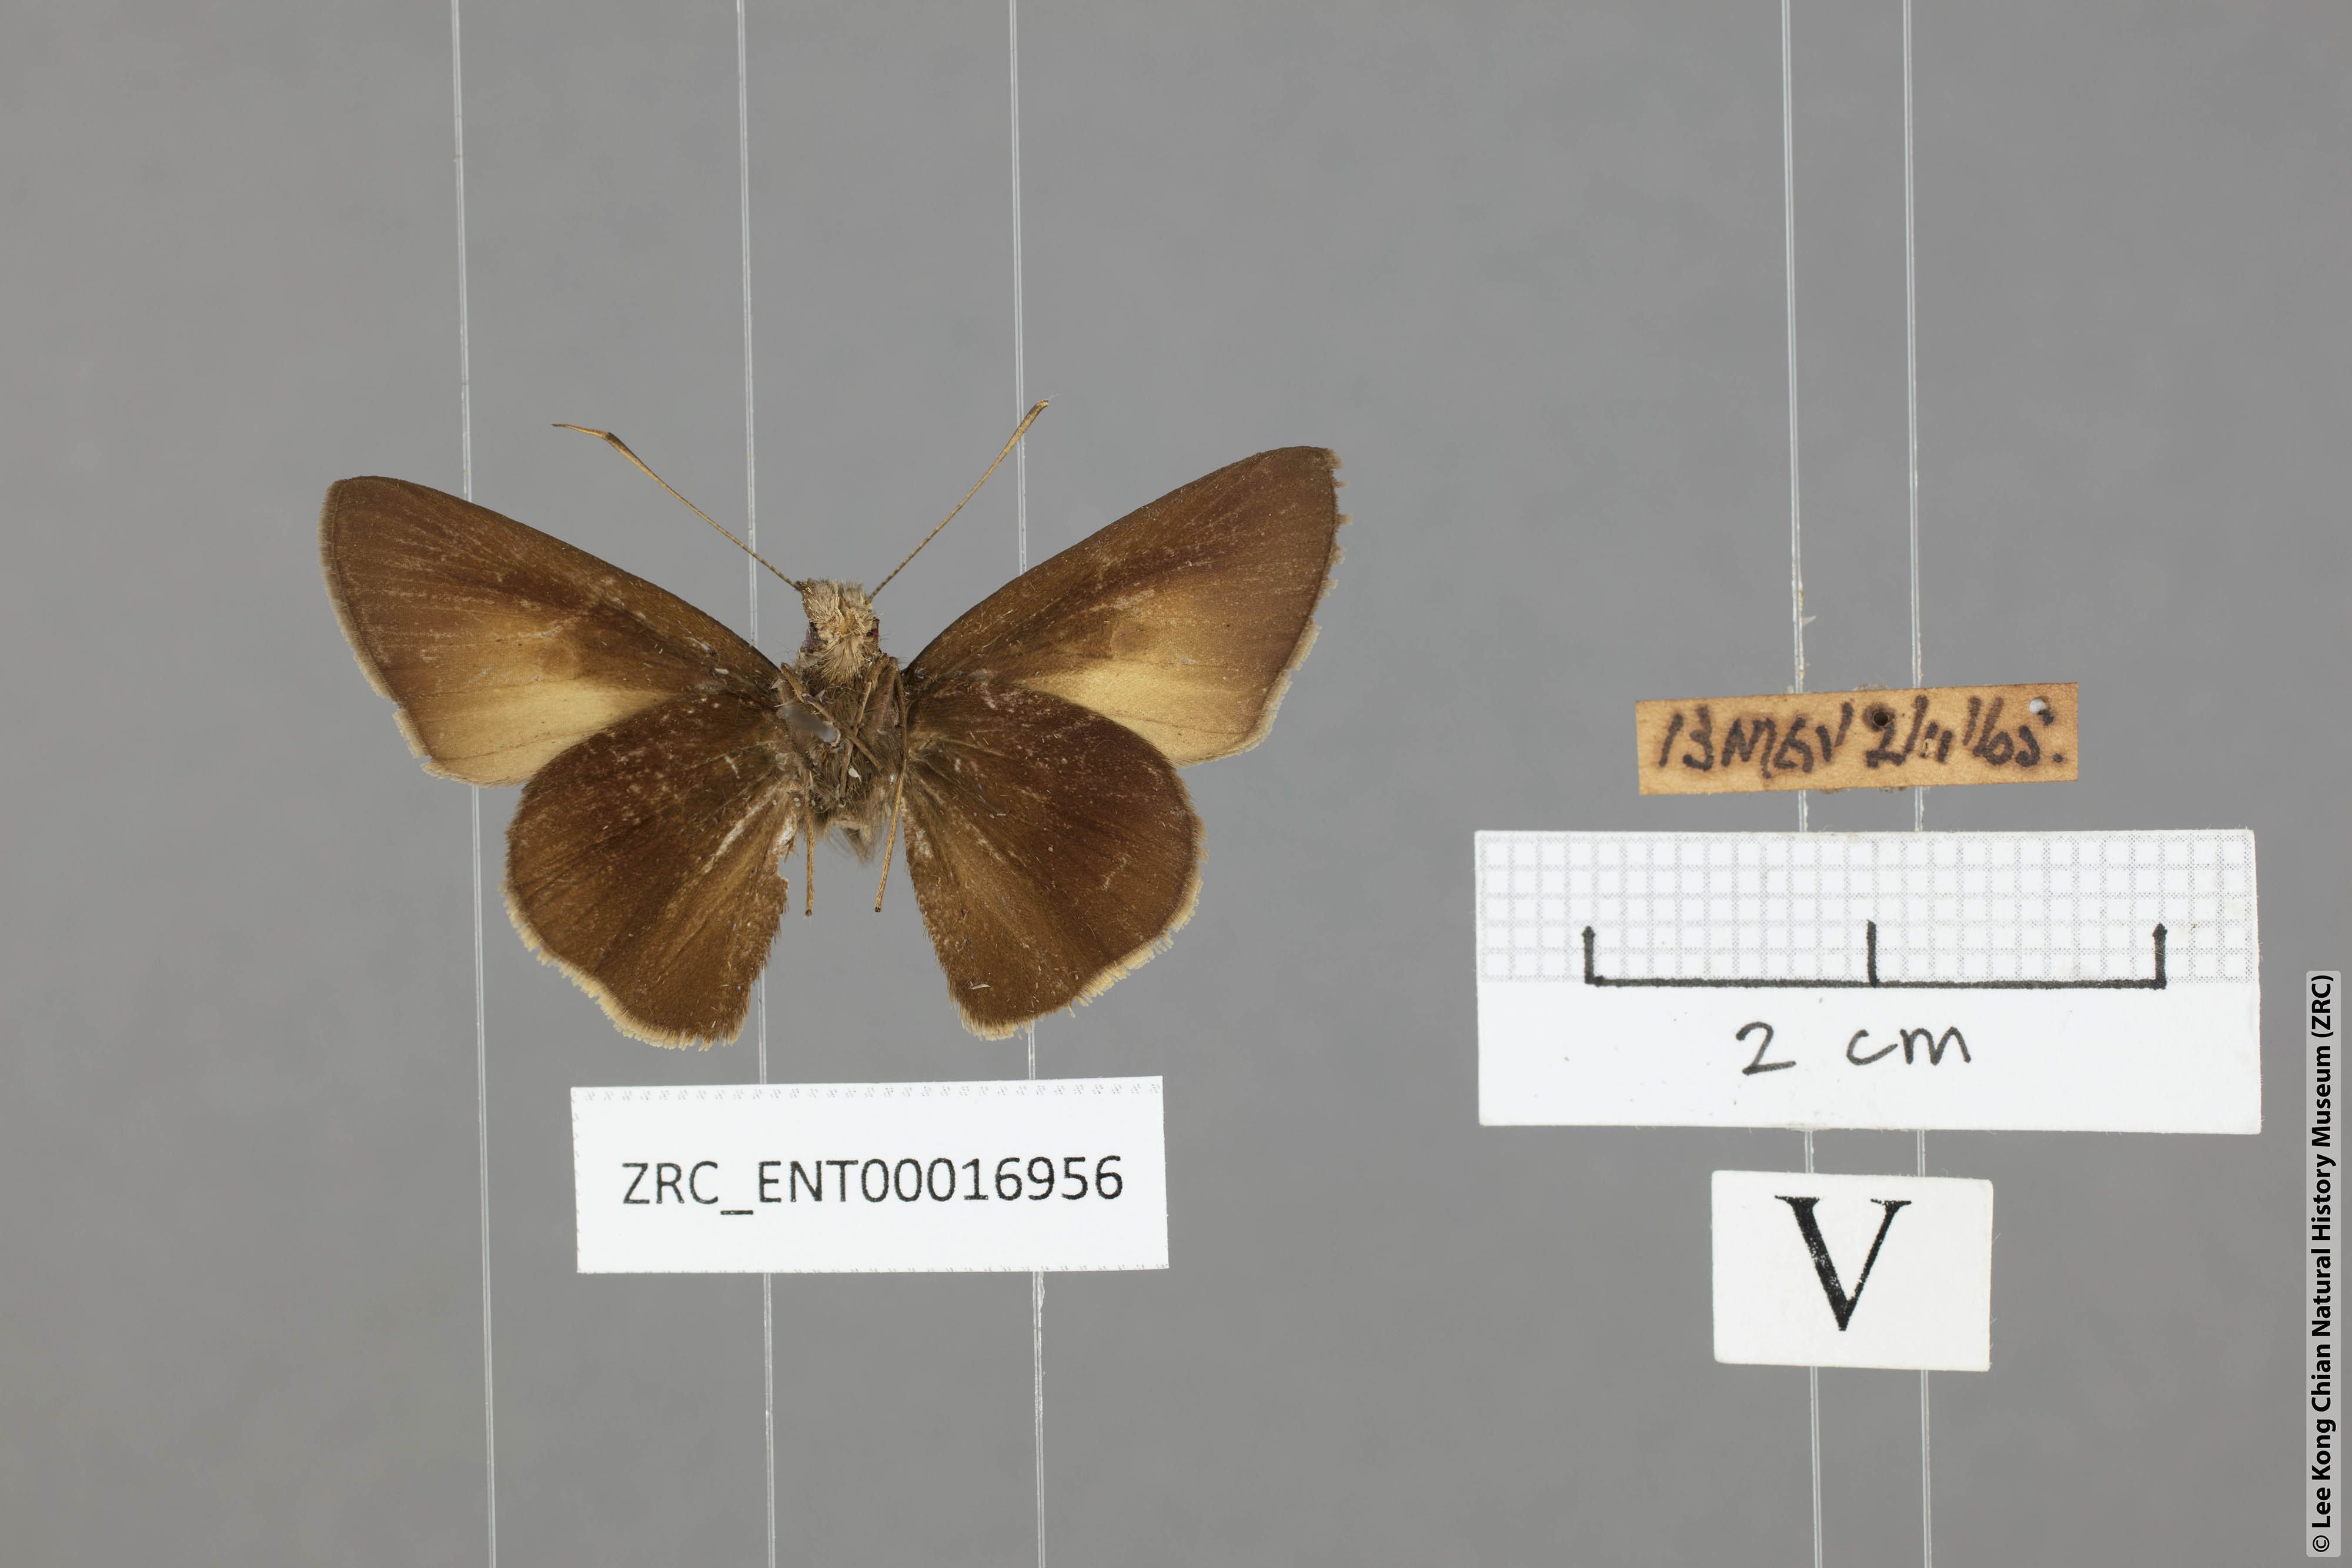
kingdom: Animalia
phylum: Arthropoda
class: Insecta
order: Lepidoptera
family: Hesperiidae
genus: Ge
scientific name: Ge
